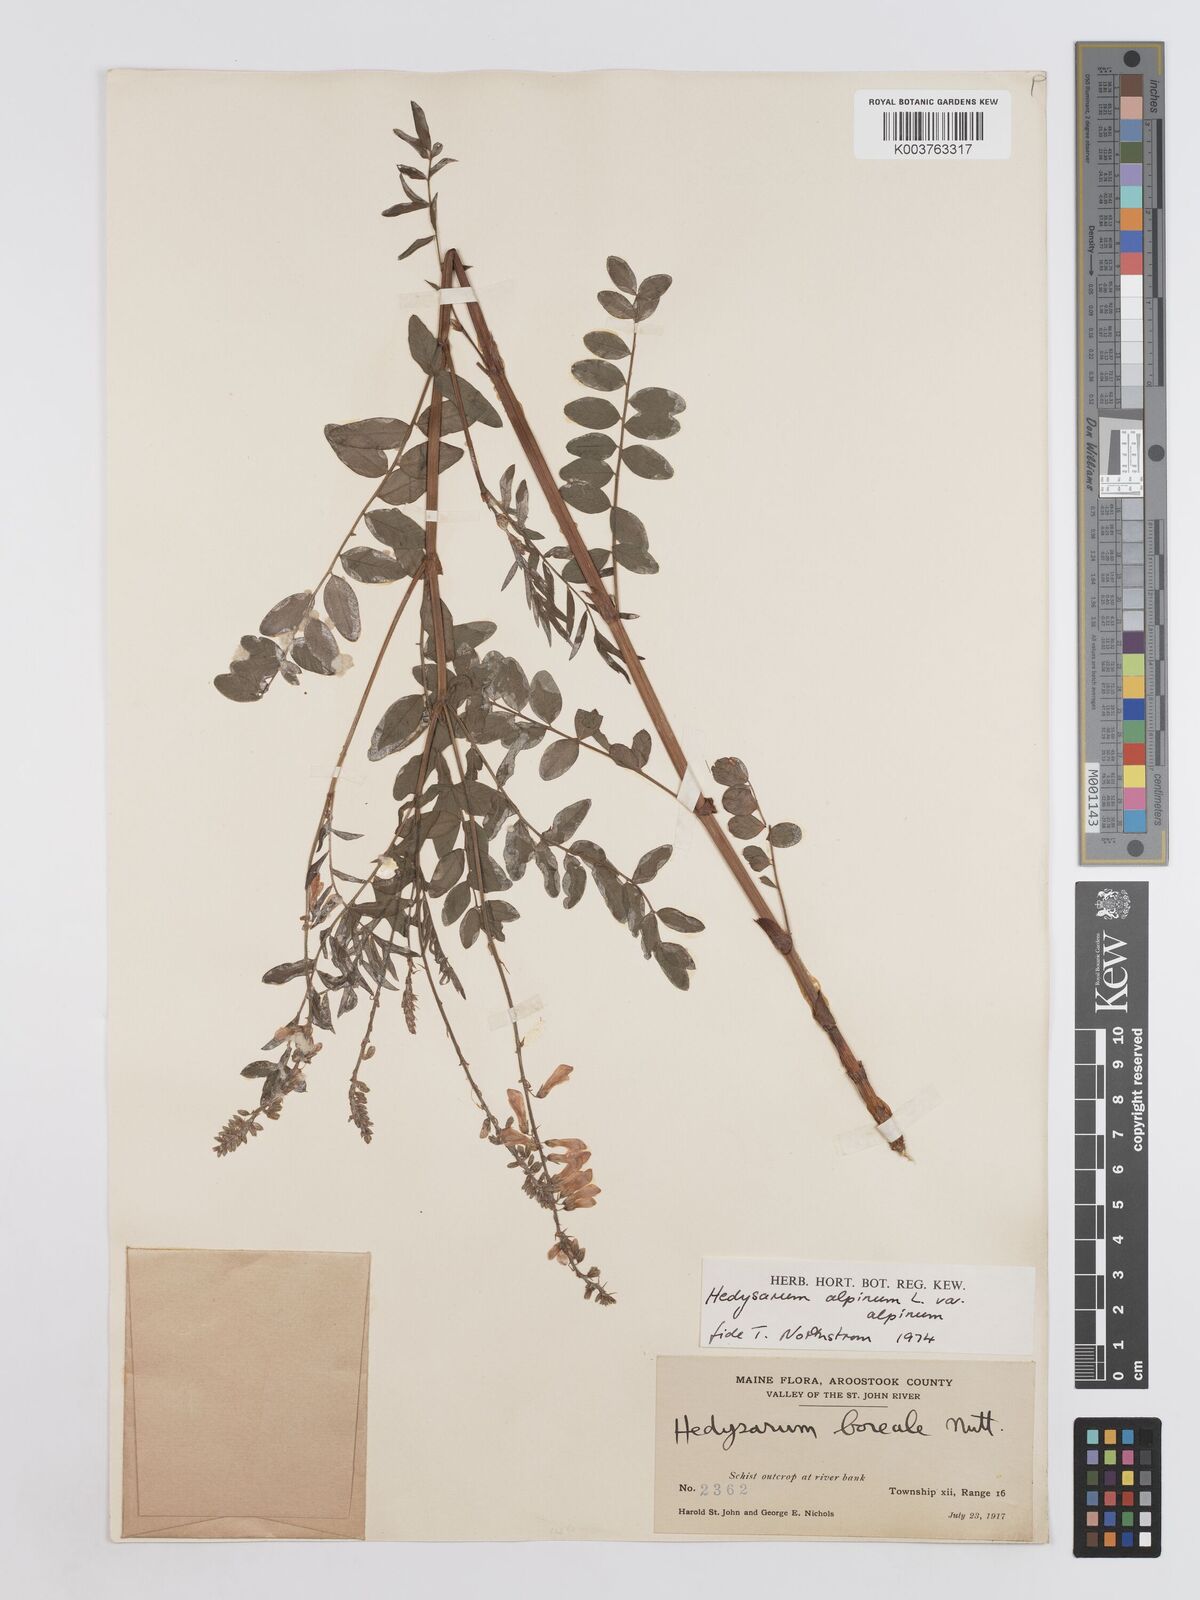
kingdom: Plantae
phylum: Tracheophyta
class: Magnoliopsida
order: Fabales
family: Fabaceae
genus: Hedysarum
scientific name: Hedysarum alpinum
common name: Alpine sweet-vetch
